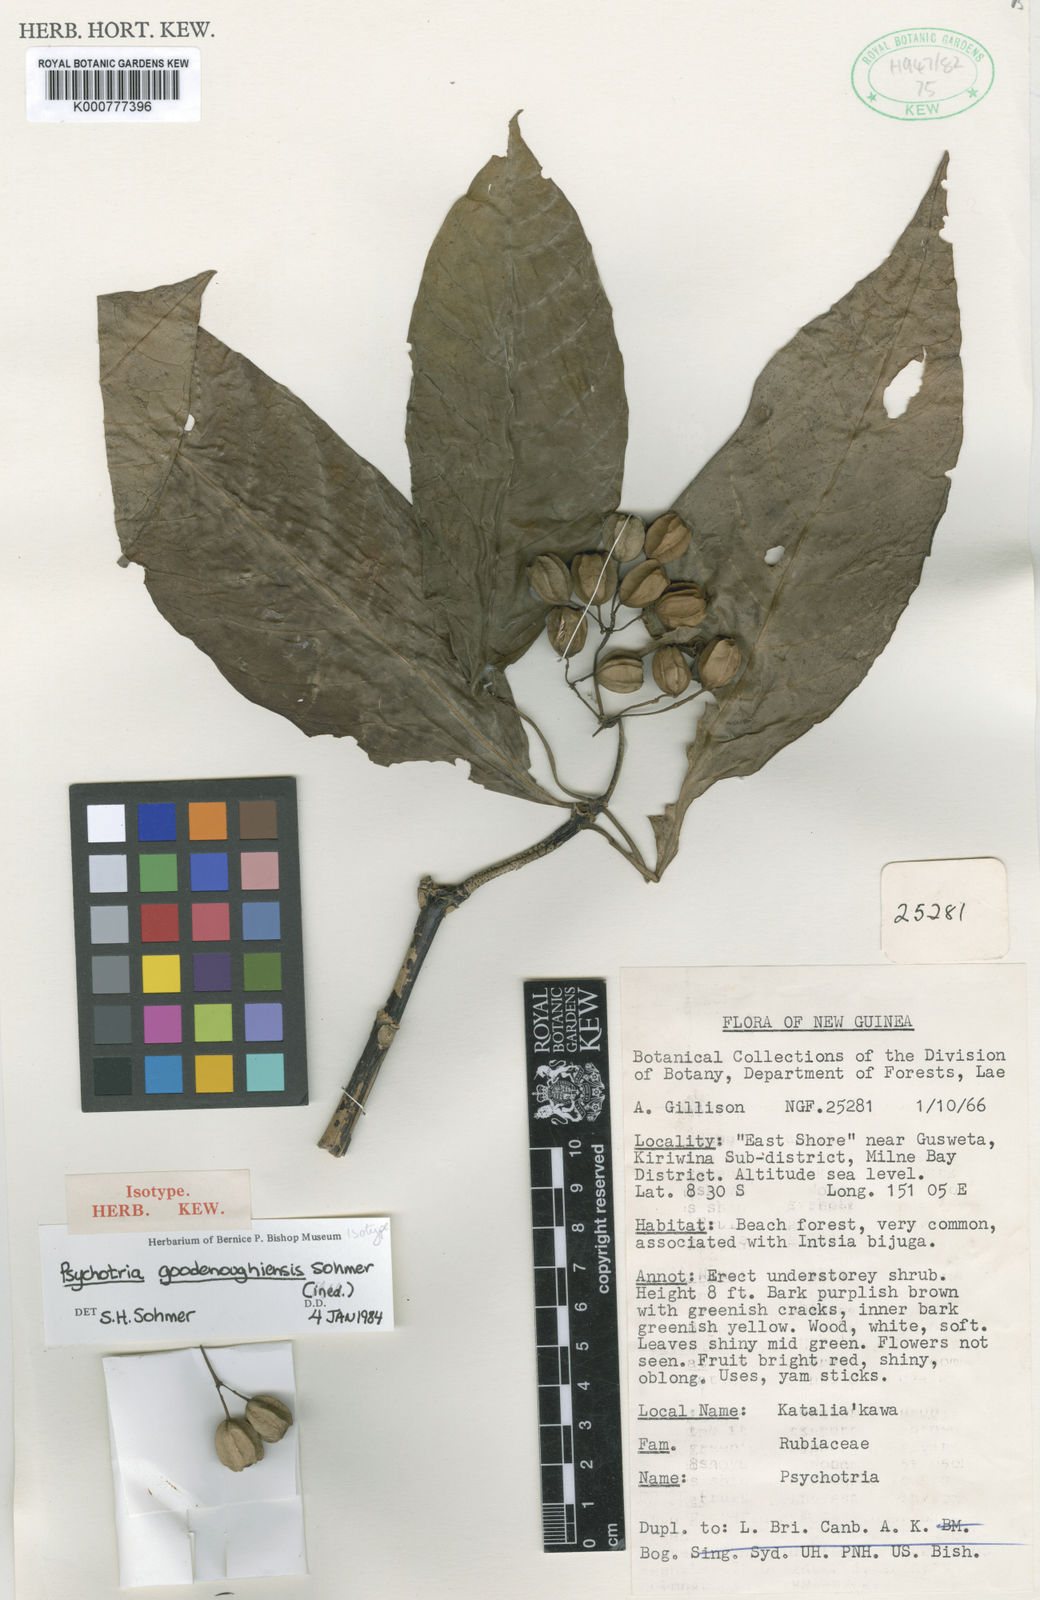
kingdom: Plantae
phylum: Tracheophyta
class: Magnoliopsida
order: Gentianales
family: Rubiaceae
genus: Eumachia
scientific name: Eumachia goodenoughiensis
